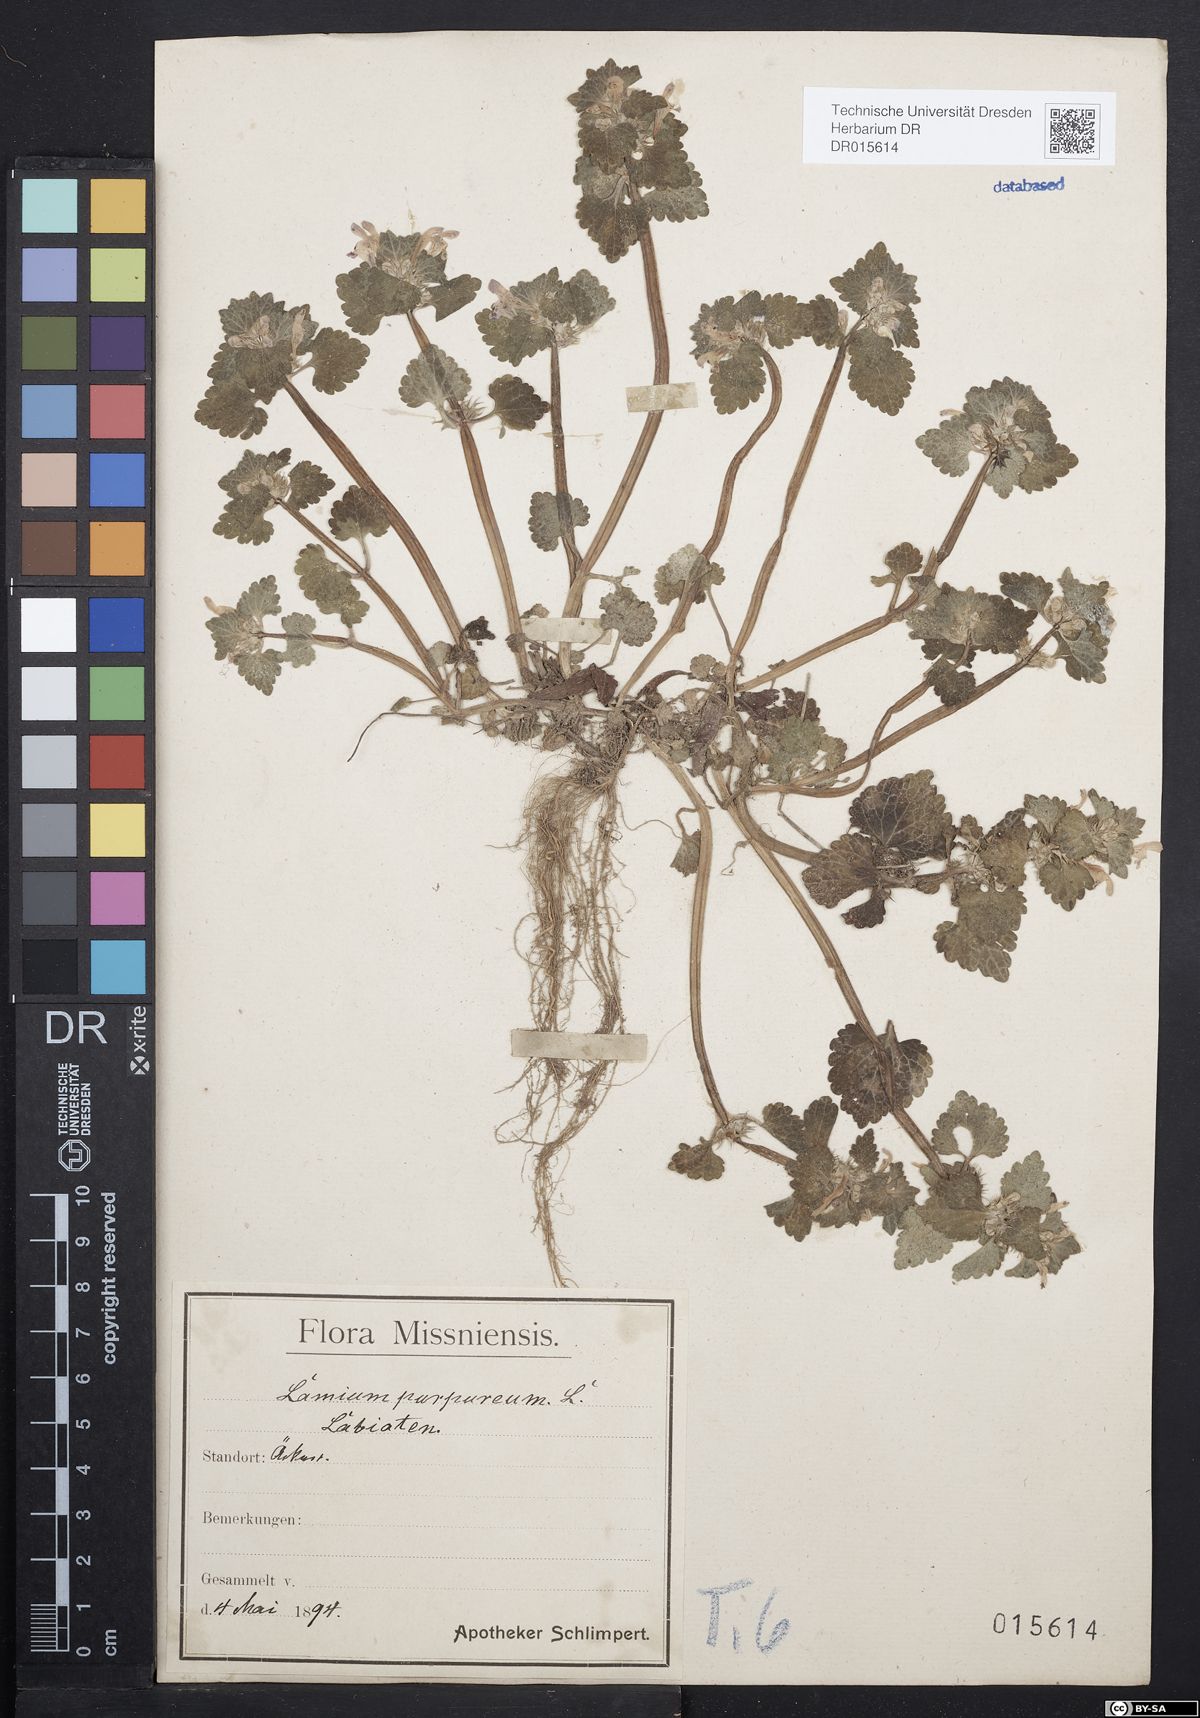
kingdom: Plantae
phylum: Tracheophyta
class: Magnoliopsida
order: Lamiales
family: Lamiaceae
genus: Lamium
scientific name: Lamium purpureum
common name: Red dead-nettle
